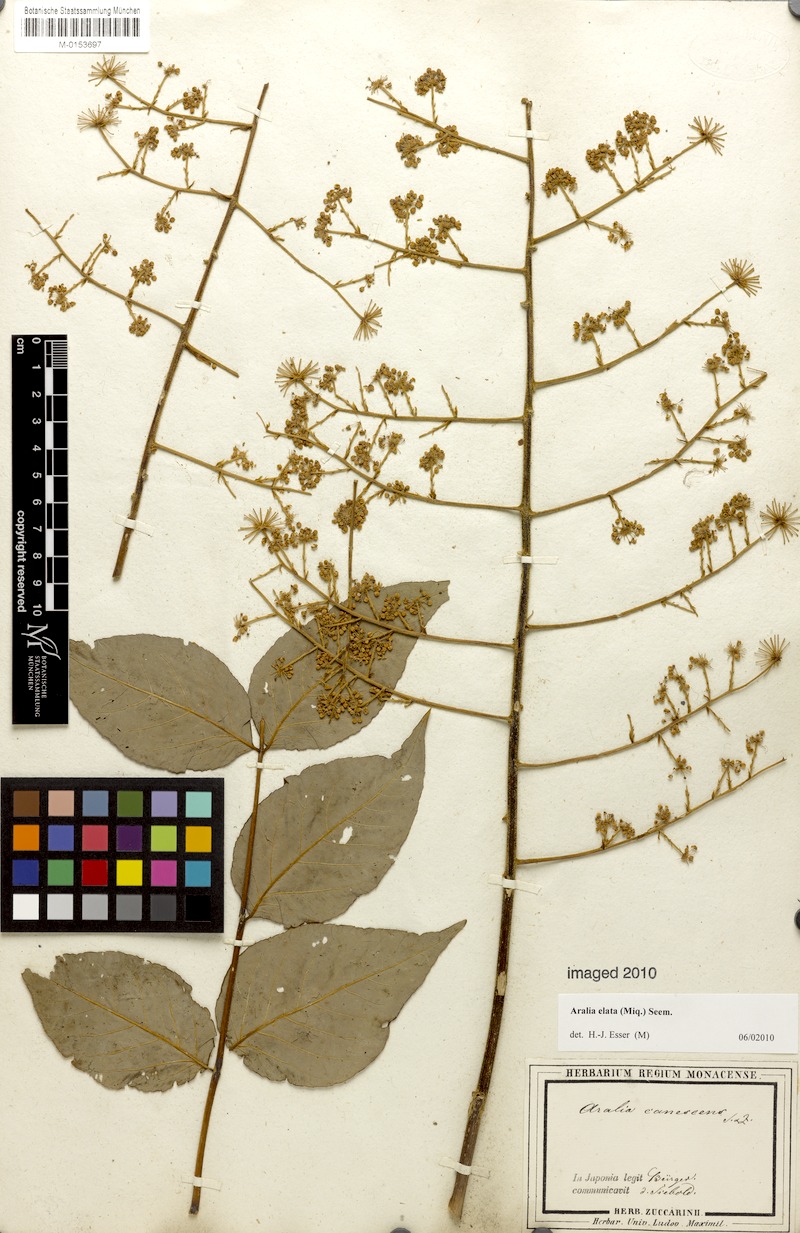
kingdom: Plantae
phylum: Tracheophyta
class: Magnoliopsida
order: Apiales
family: Araliaceae
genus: Aralia
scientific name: Aralia elata
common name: Japanese angelica-tree
